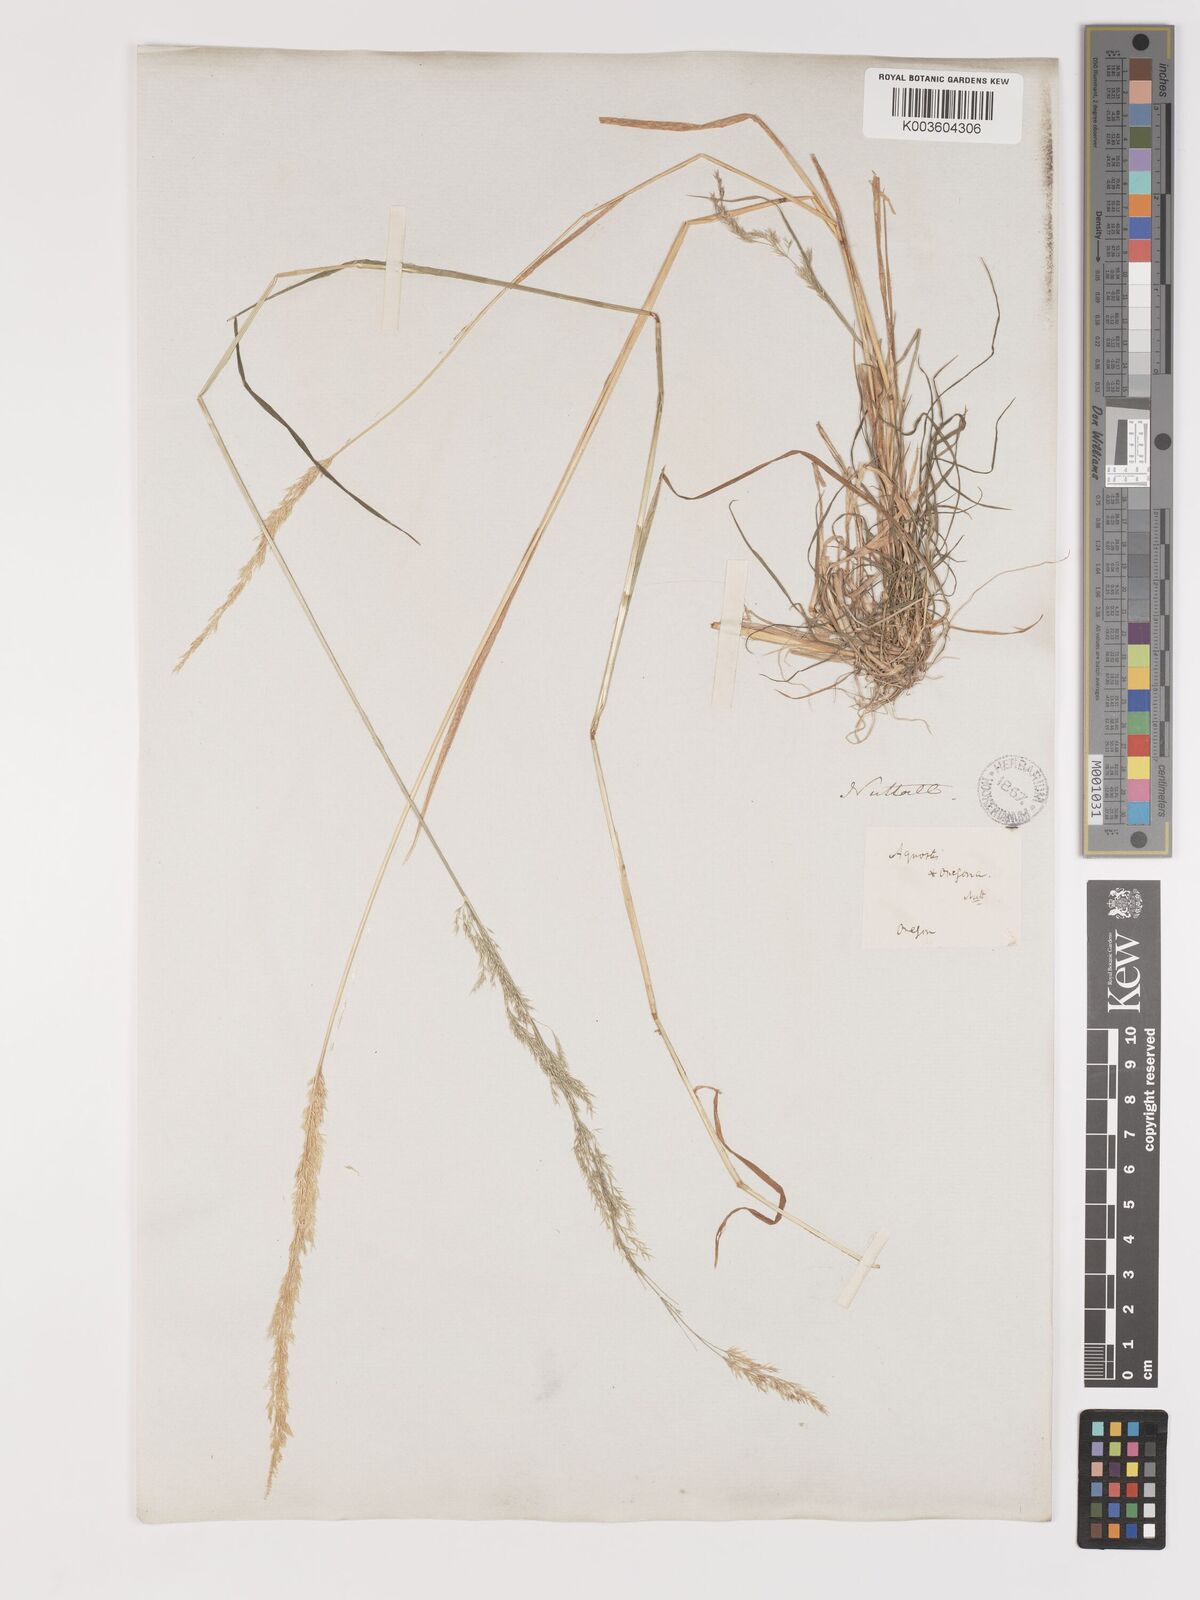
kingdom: Plantae
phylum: Tracheophyta
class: Liliopsida
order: Poales
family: Poaceae
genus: Agrostis
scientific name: Agrostis exarata
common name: Spike bent
